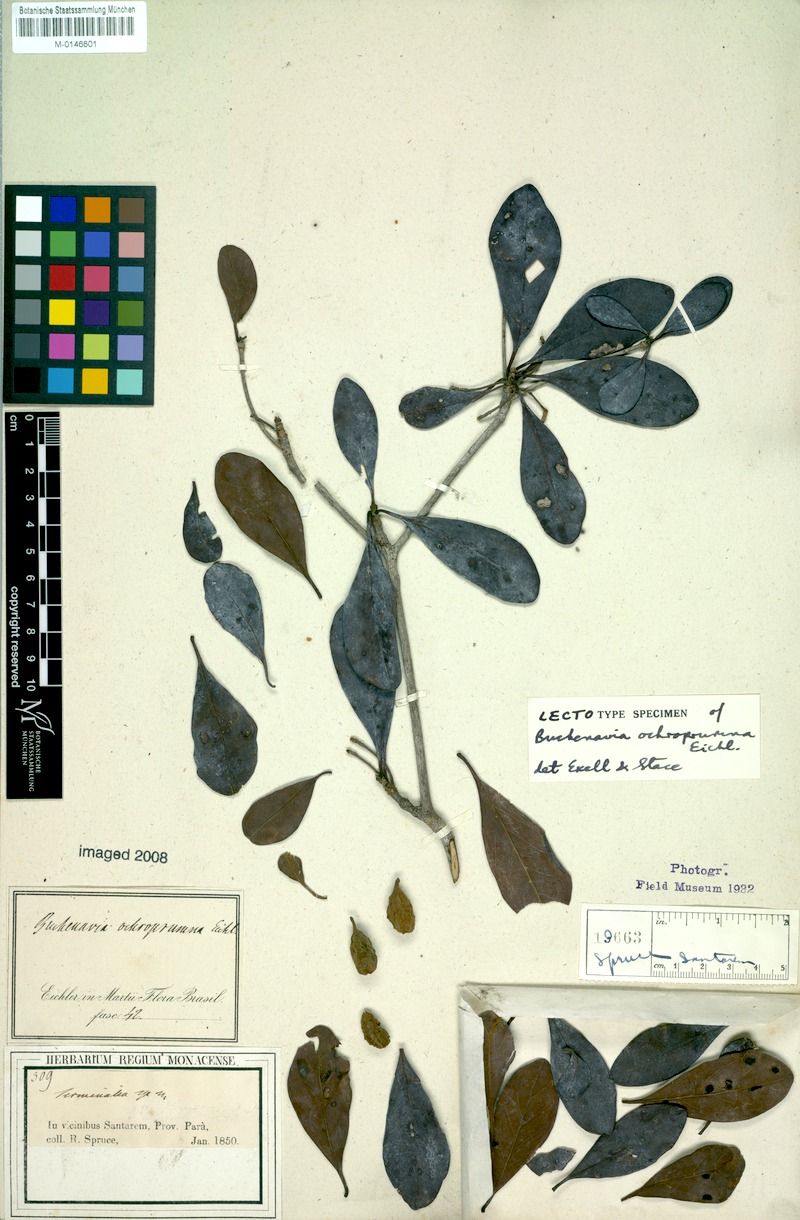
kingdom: Plantae
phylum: Tracheophyta
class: Magnoliopsida
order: Myrtales
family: Combretaceae
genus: Terminalia
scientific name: Terminalia ochroprumna
